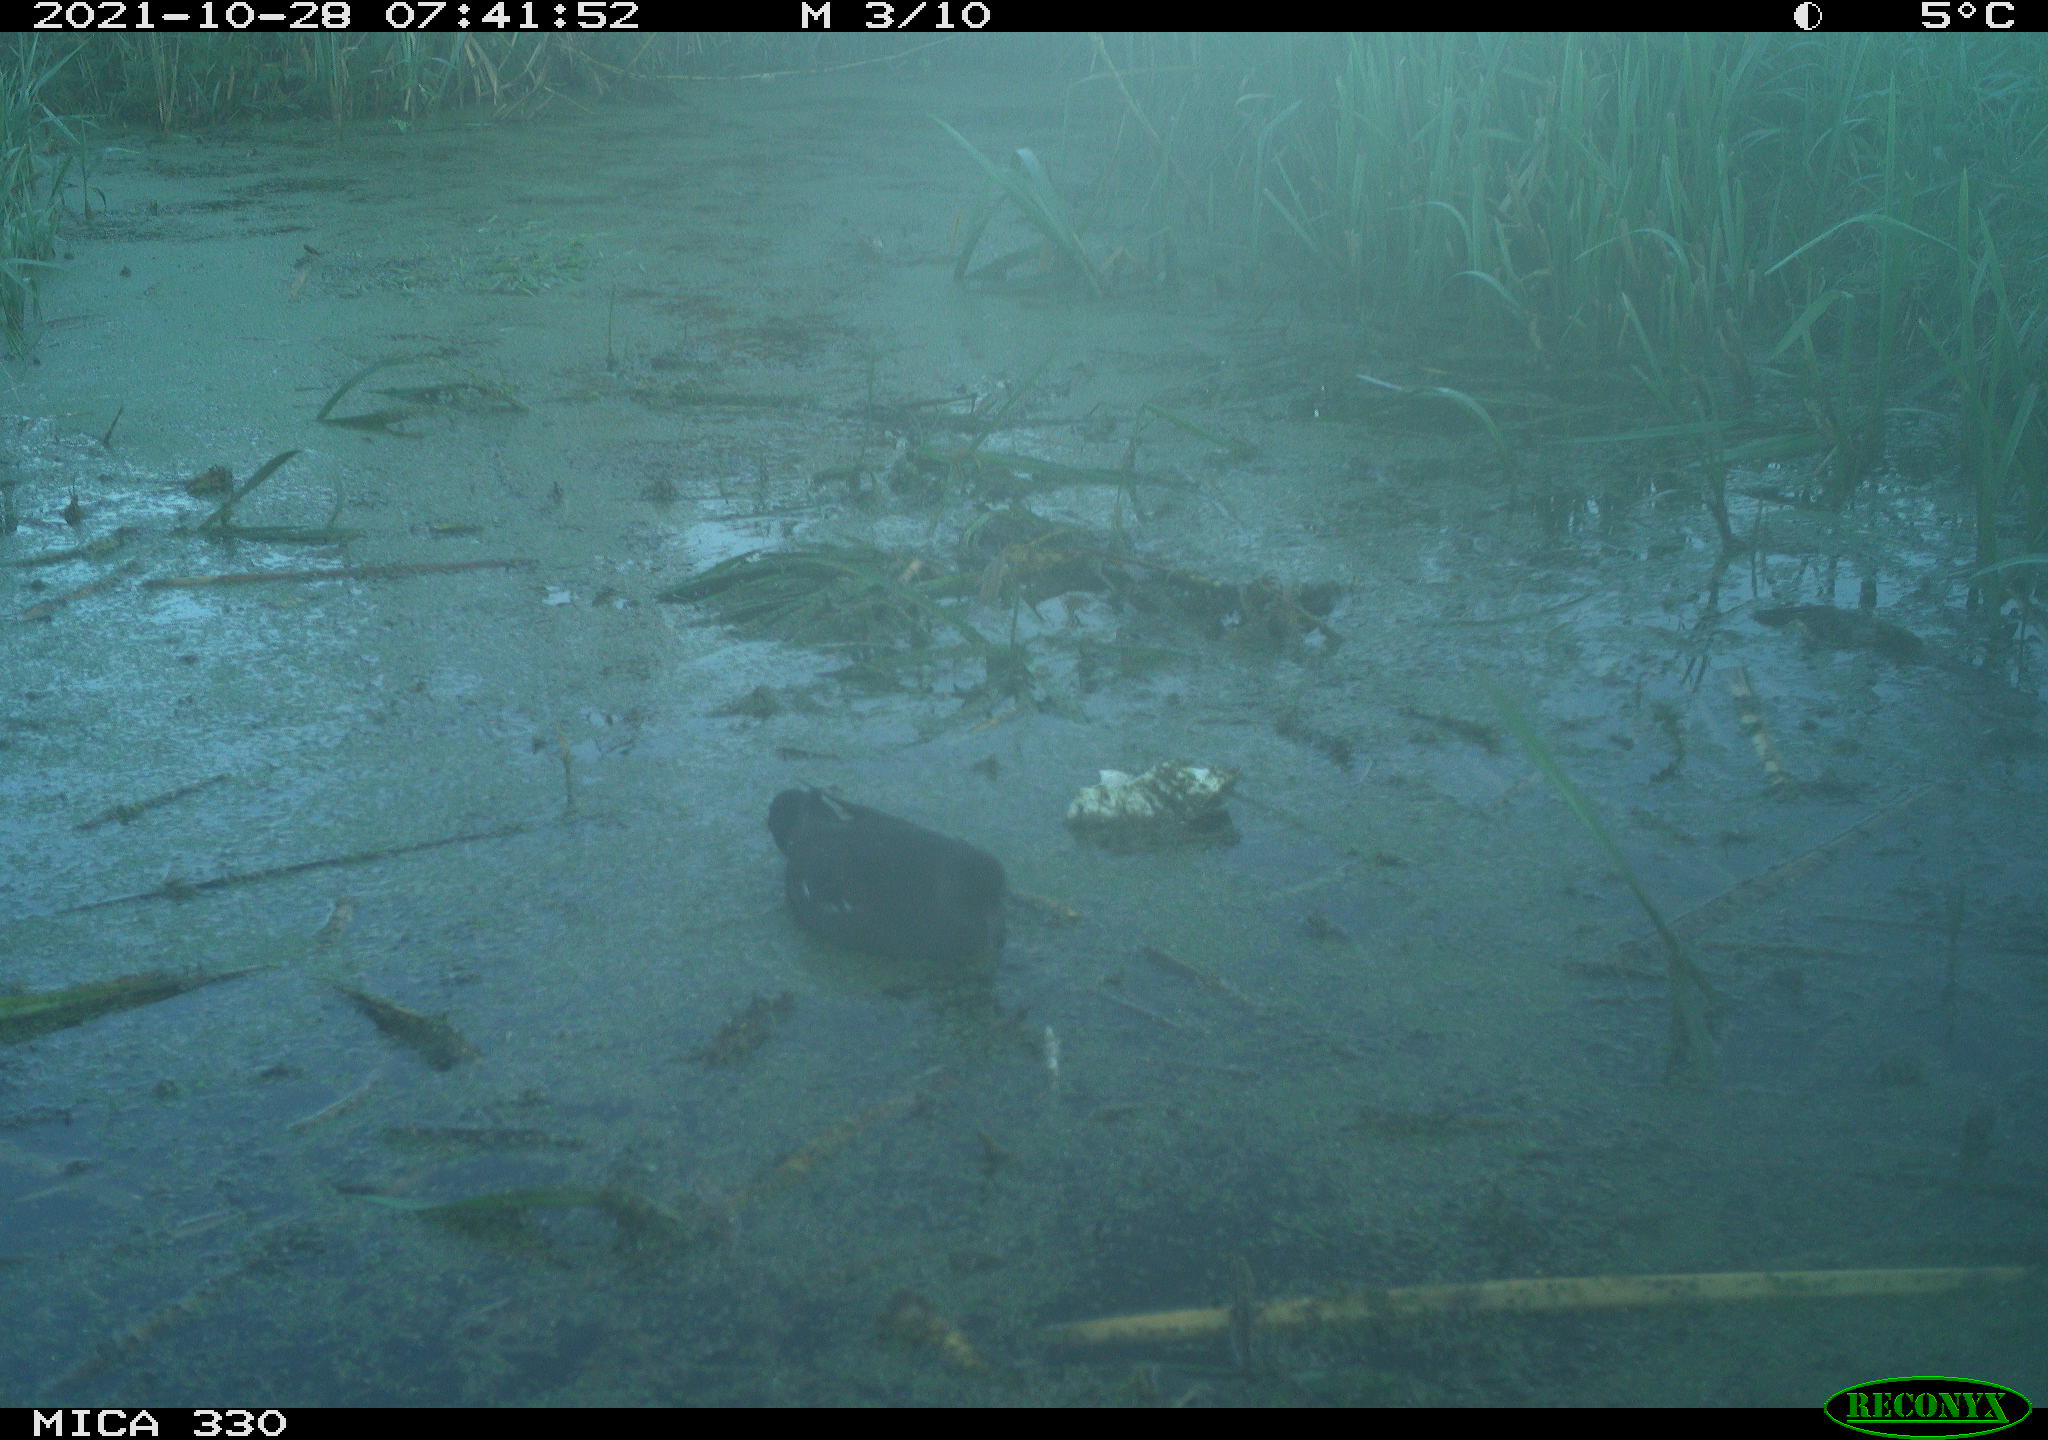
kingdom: Animalia
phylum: Chordata
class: Aves
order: Gruiformes
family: Rallidae
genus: Gallinula
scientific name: Gallinula chloropus
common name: Common moorhen
